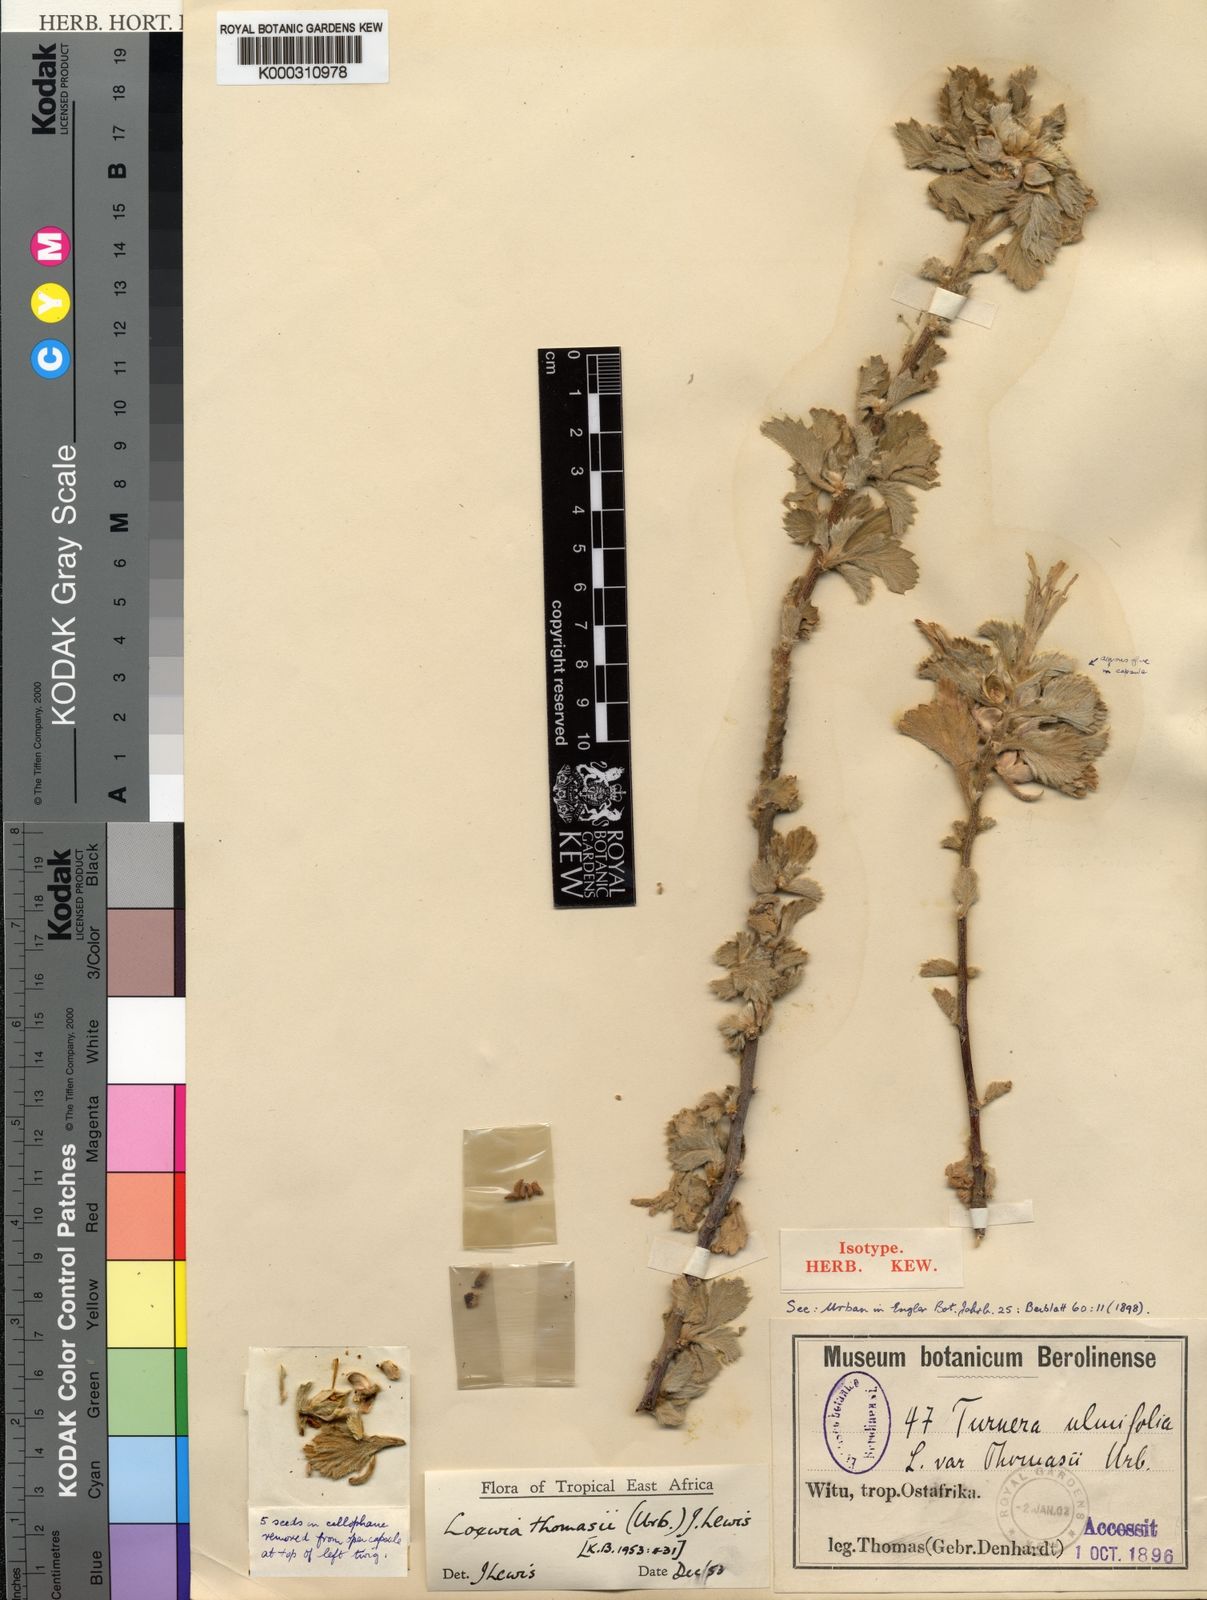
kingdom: Plantae
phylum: Tracheophyta
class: Magnoliopsida
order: Malpighiales
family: Turneraceae
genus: Turnera
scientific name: Turnera thomasii
